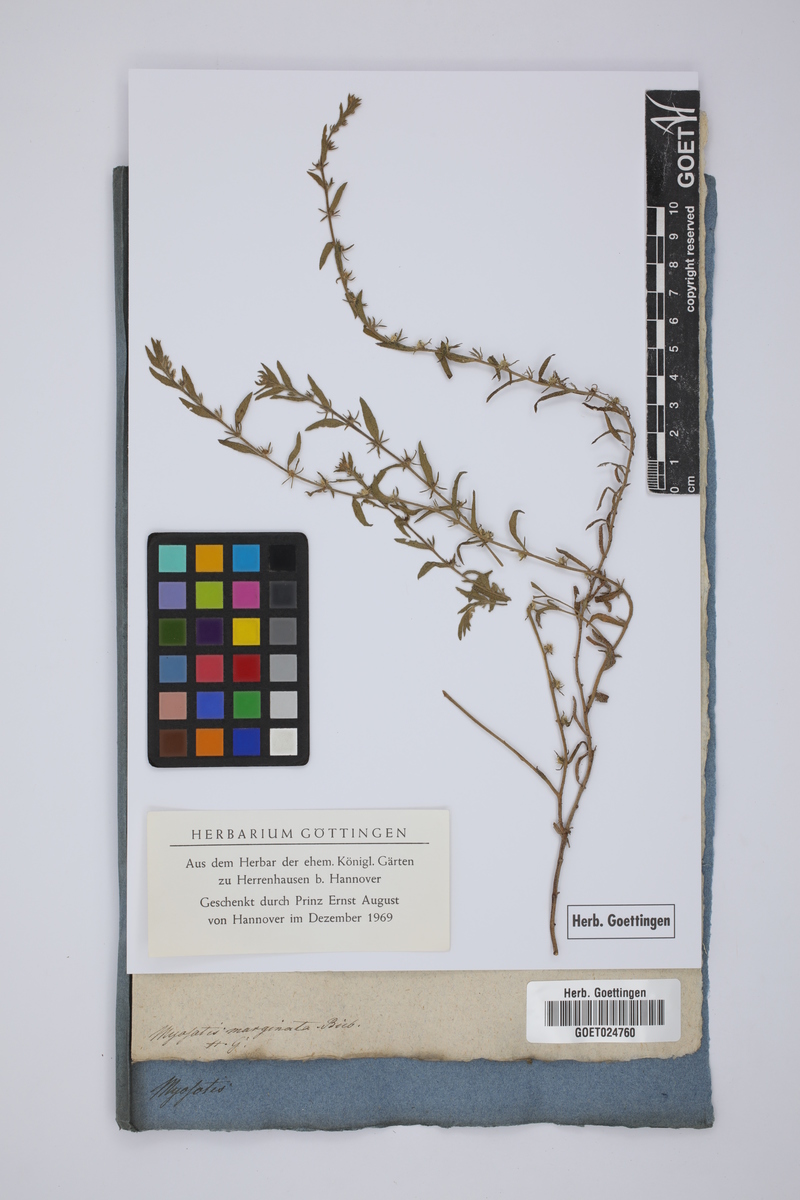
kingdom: Plantae
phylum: Tracheophyta
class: Magnoliopsida
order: Boraginales
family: Boraginaceae
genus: Lappula
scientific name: Lappula marginata
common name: Margined stickseed
